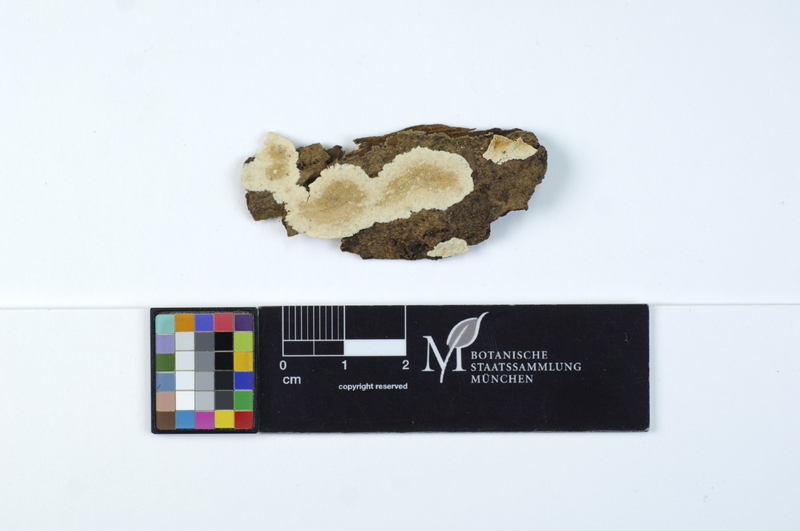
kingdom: Fungi
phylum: Basidiomycota
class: Agaricomycetes
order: Polyporales
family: Steccherinaceae
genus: Junghuhnia
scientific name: Junghuhnia nitida
